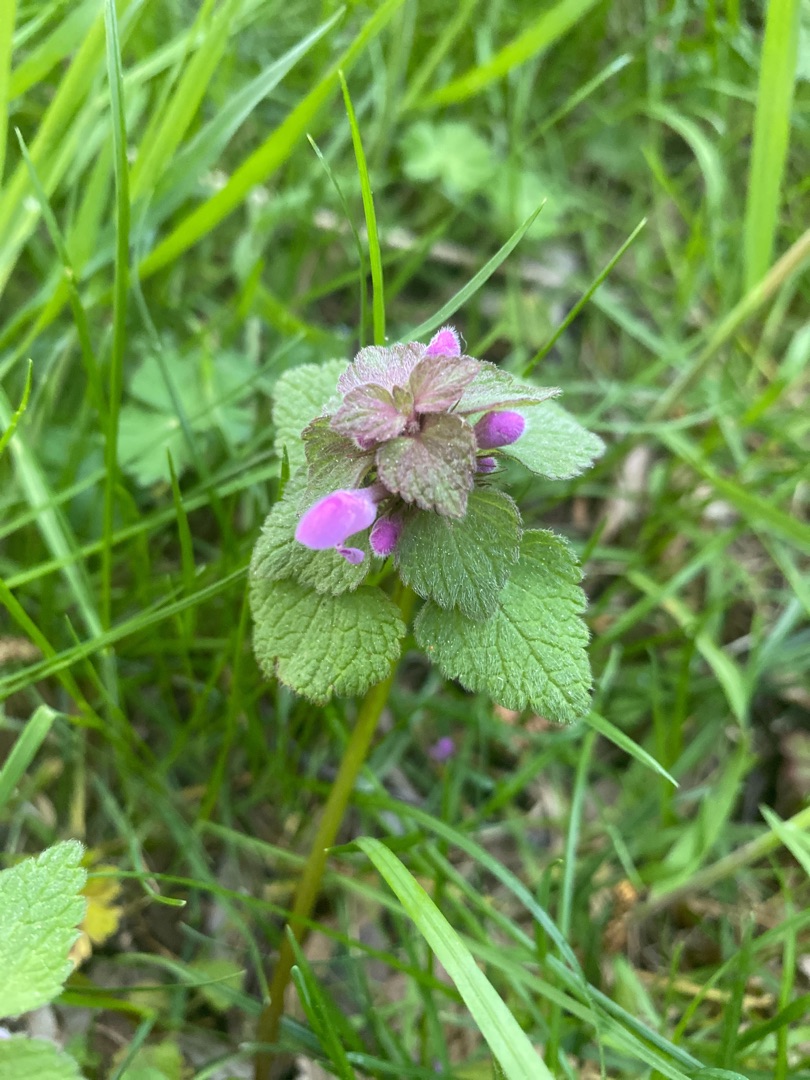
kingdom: Plantae
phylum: Tracheophyta
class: Magnoliopsida
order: Lamiales
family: Lamiaceae
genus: Lamium
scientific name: Lamium purpureum
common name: Rød tvetand
